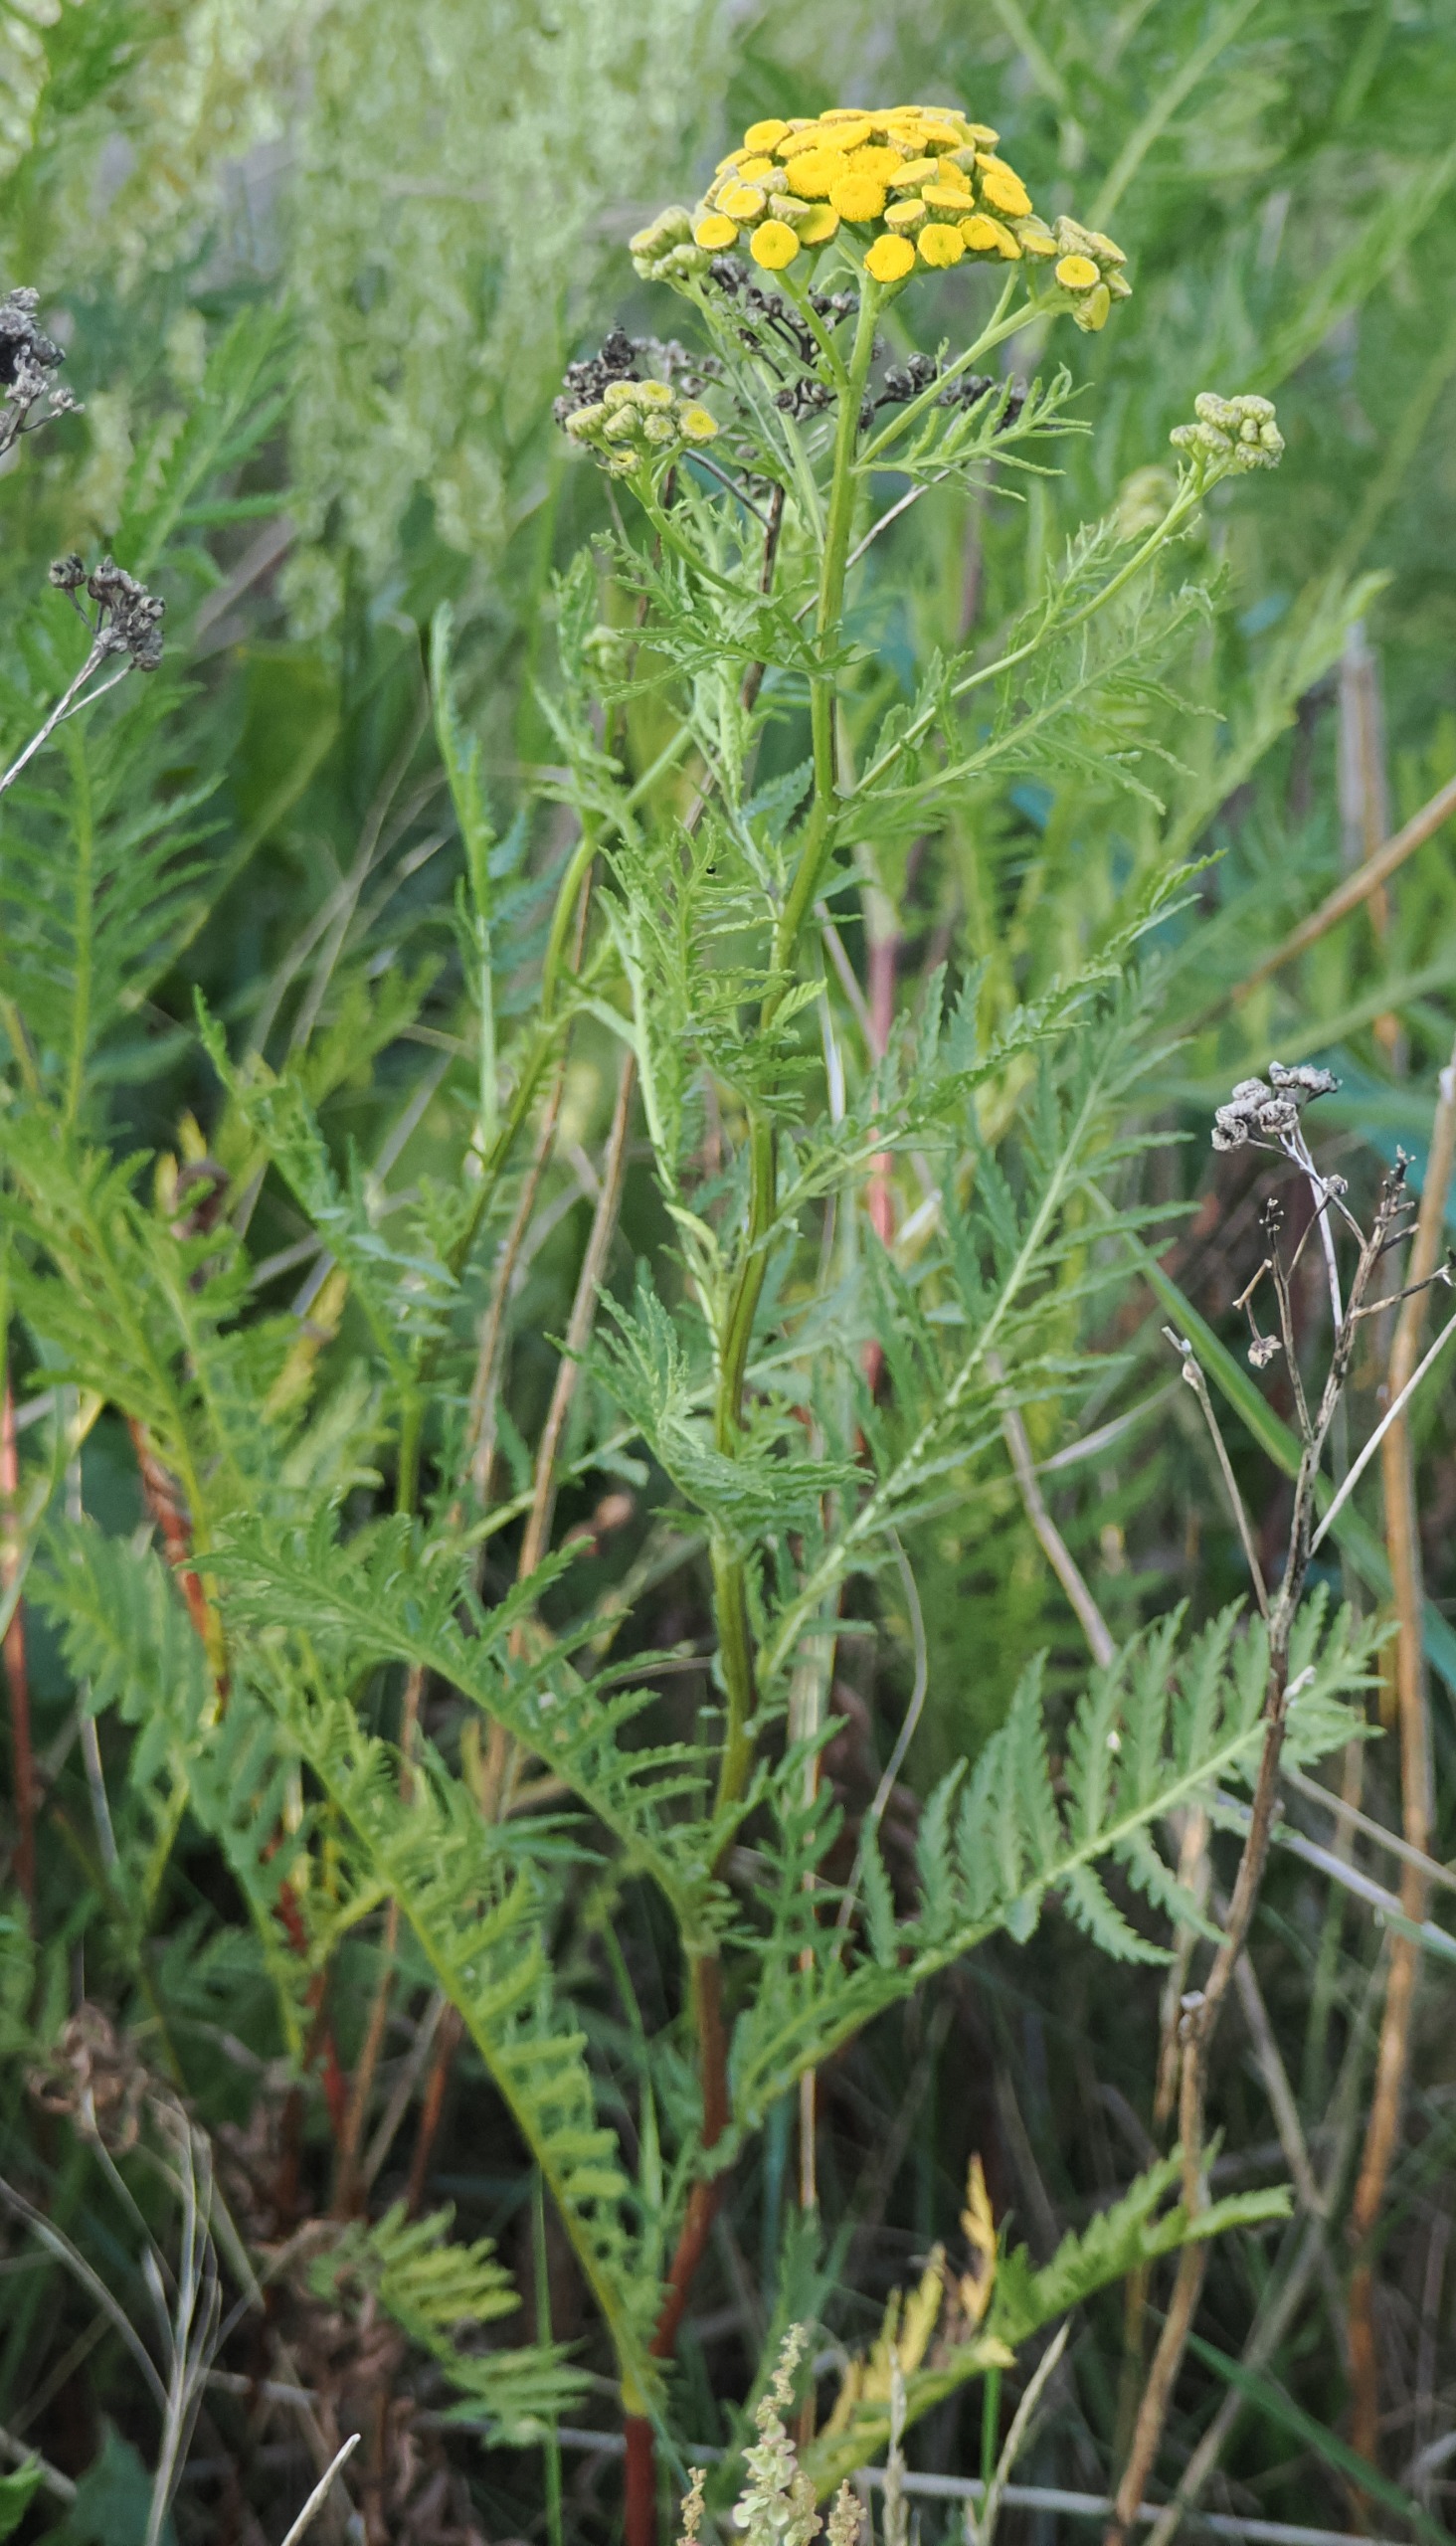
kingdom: Plantae
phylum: Tracheophyta
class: Magnoliopsida
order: Asterales
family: Asteraceae
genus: Tanacetum
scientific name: Tanacetum vulgare
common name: Rejnfan
